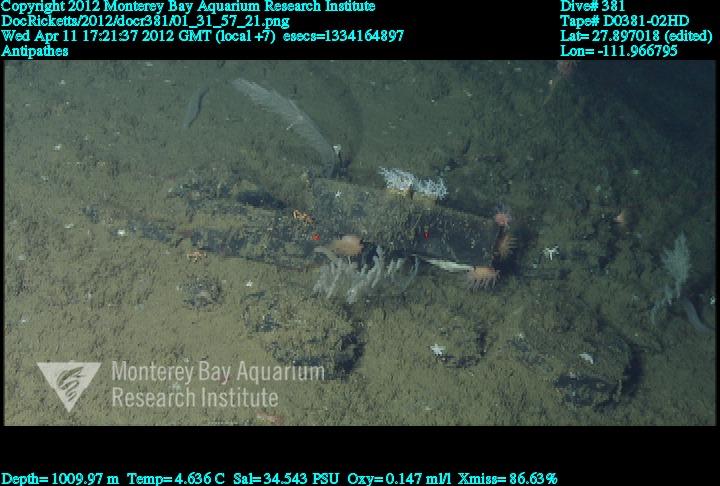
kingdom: Animalia
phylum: Cnidaria
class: Anthozoa
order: Antipatharia
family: Antipathidae
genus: Antipathes
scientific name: Antipathes
